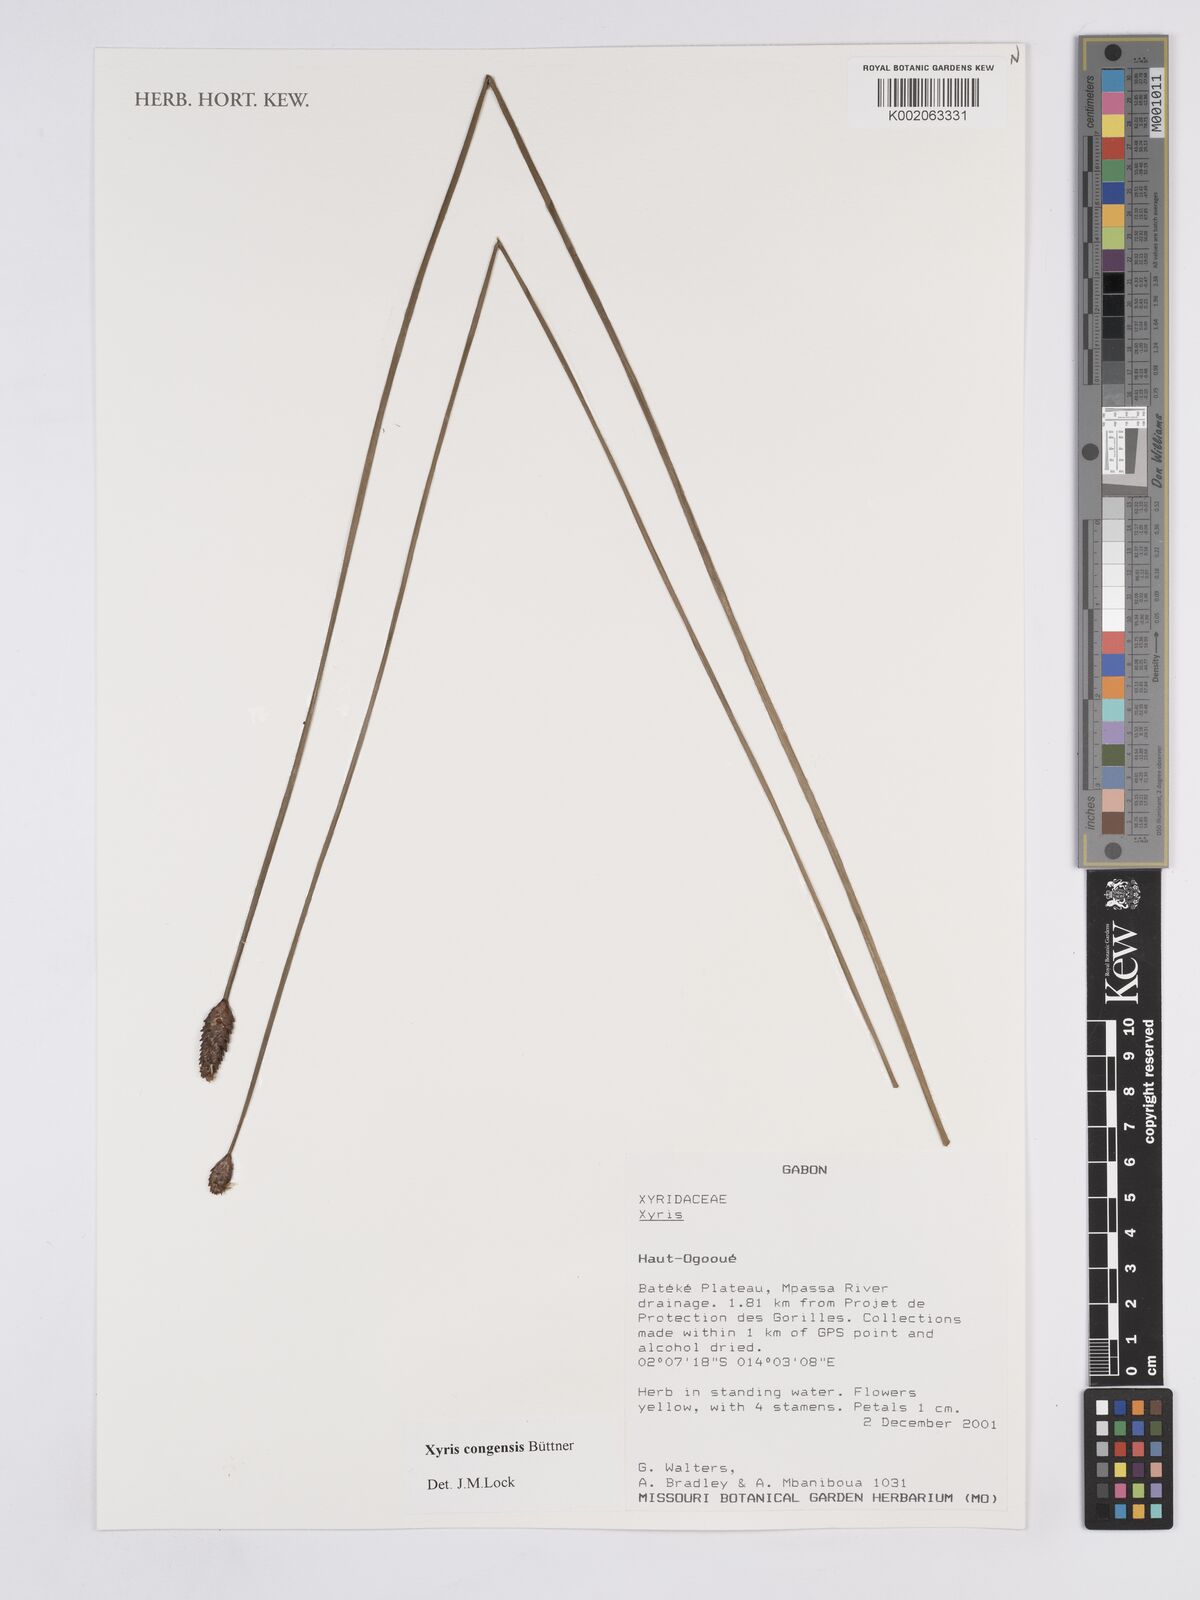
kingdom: Plantae
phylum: Tracheophyta
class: Liliopsida
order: Poales
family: Xyridaceae
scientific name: Xyridaceae
